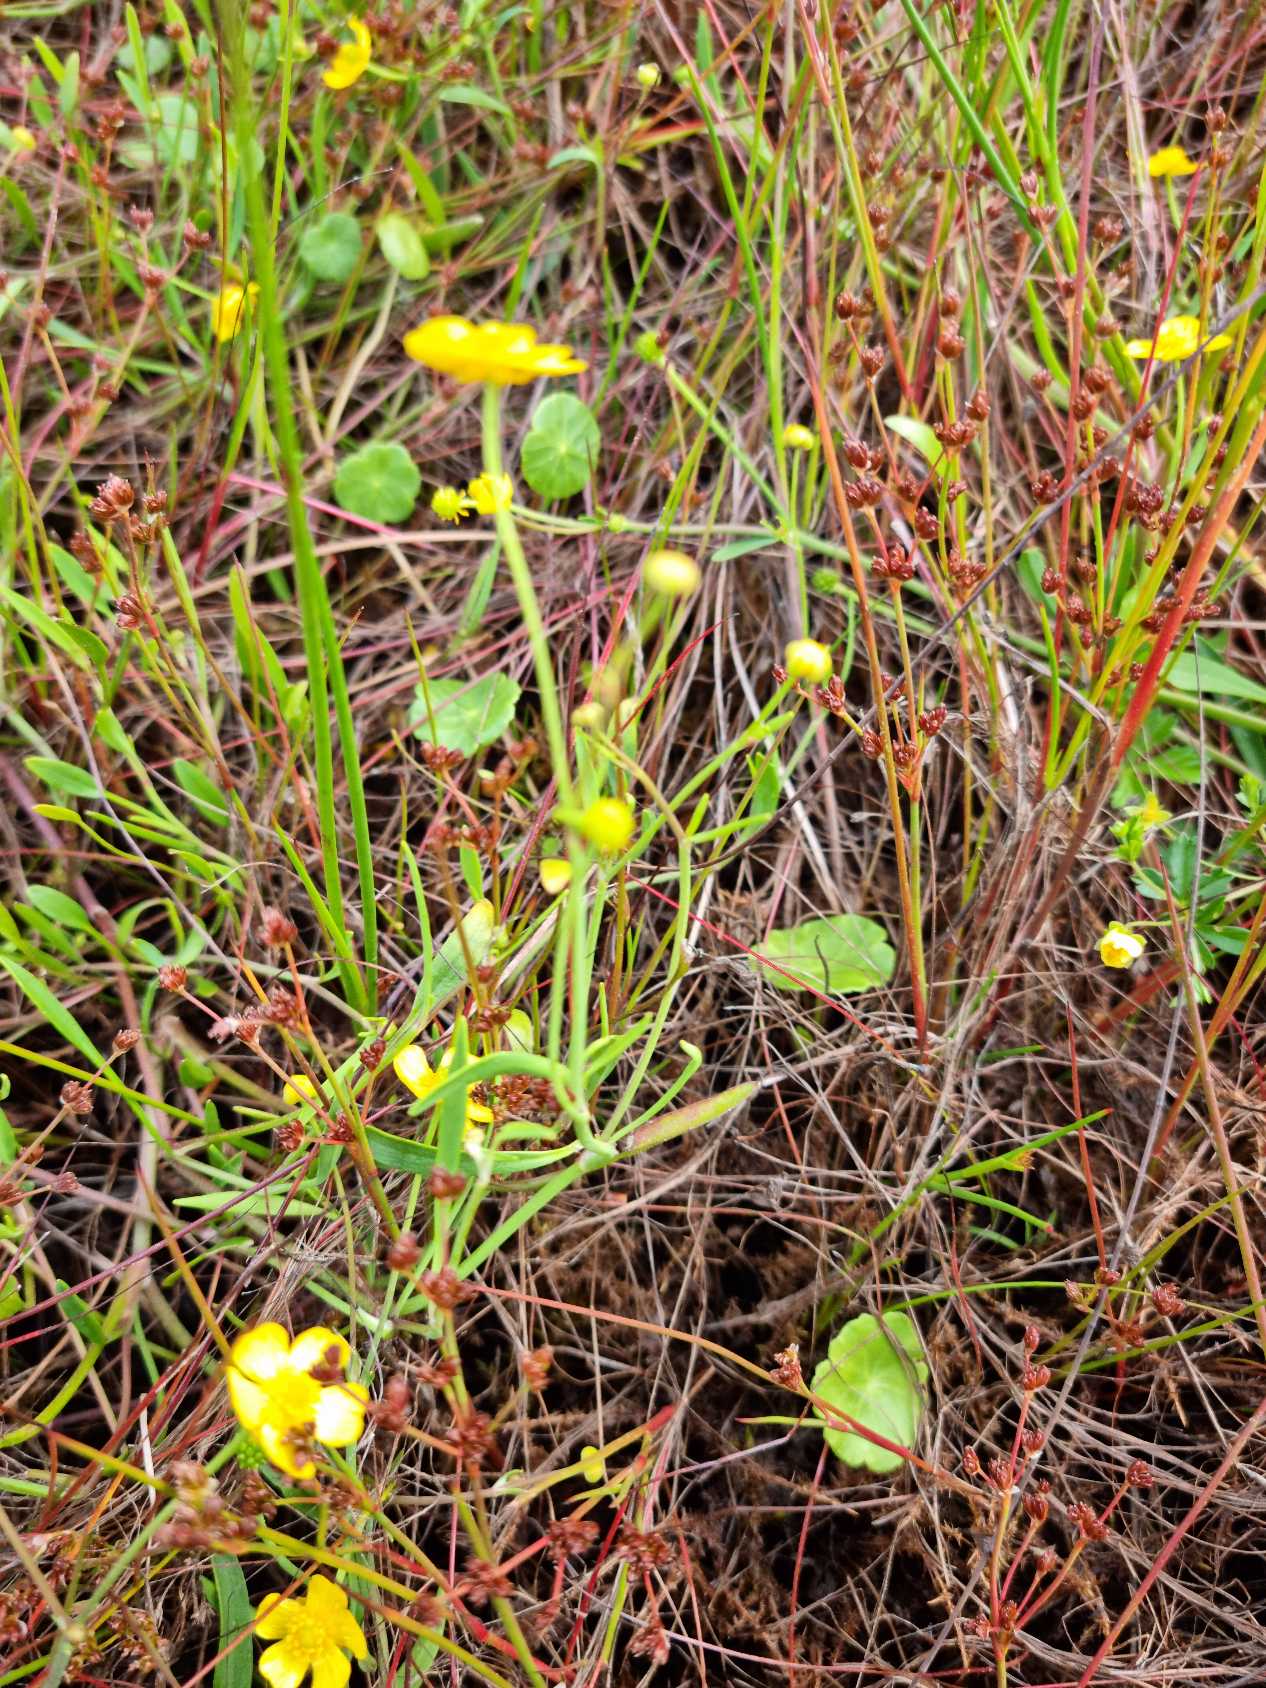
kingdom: Plantae
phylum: Tracheophyta
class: Magnoliopsida
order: Ranunculales
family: Ranunculaceae
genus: Ranunculus
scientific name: Ranunculus flammula
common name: Kær-ranunkel
